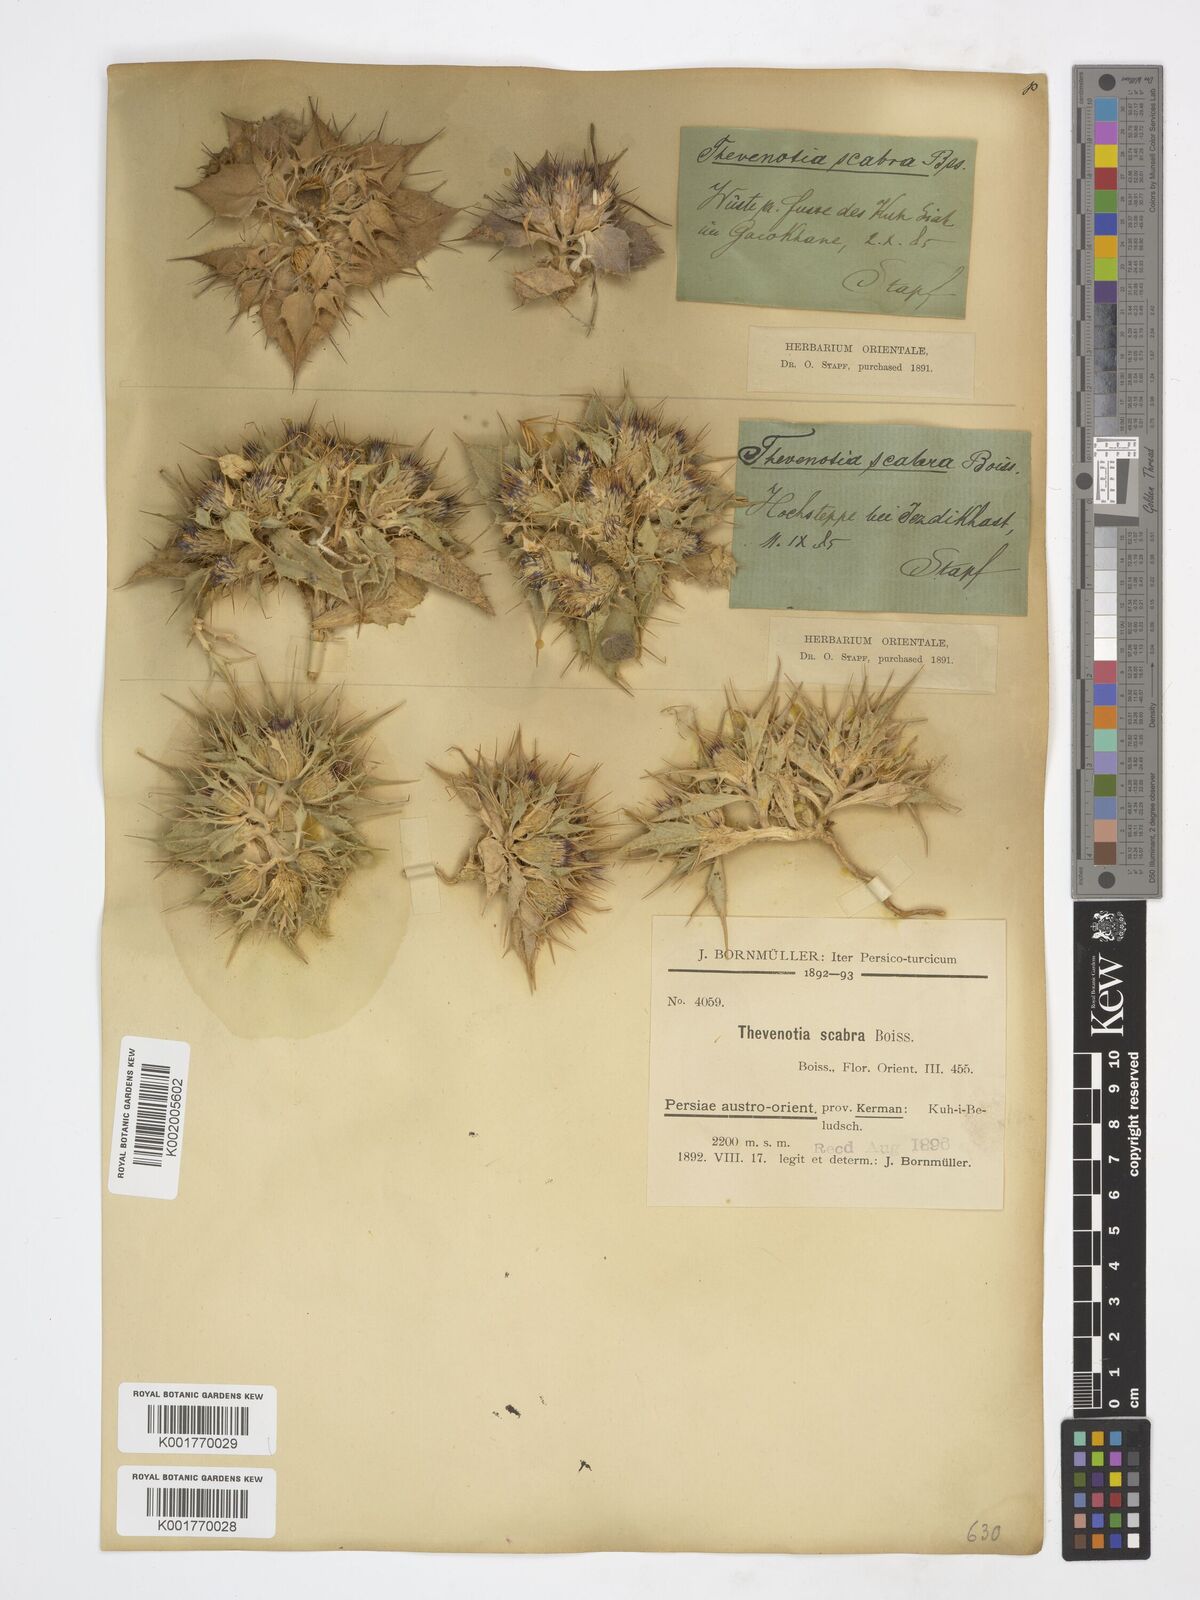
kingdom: Plantae
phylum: Tracheophyta
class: Magnoliopsida
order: Asterales
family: Asteraceae
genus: Thevenotia
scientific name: Thevenotia scabra
